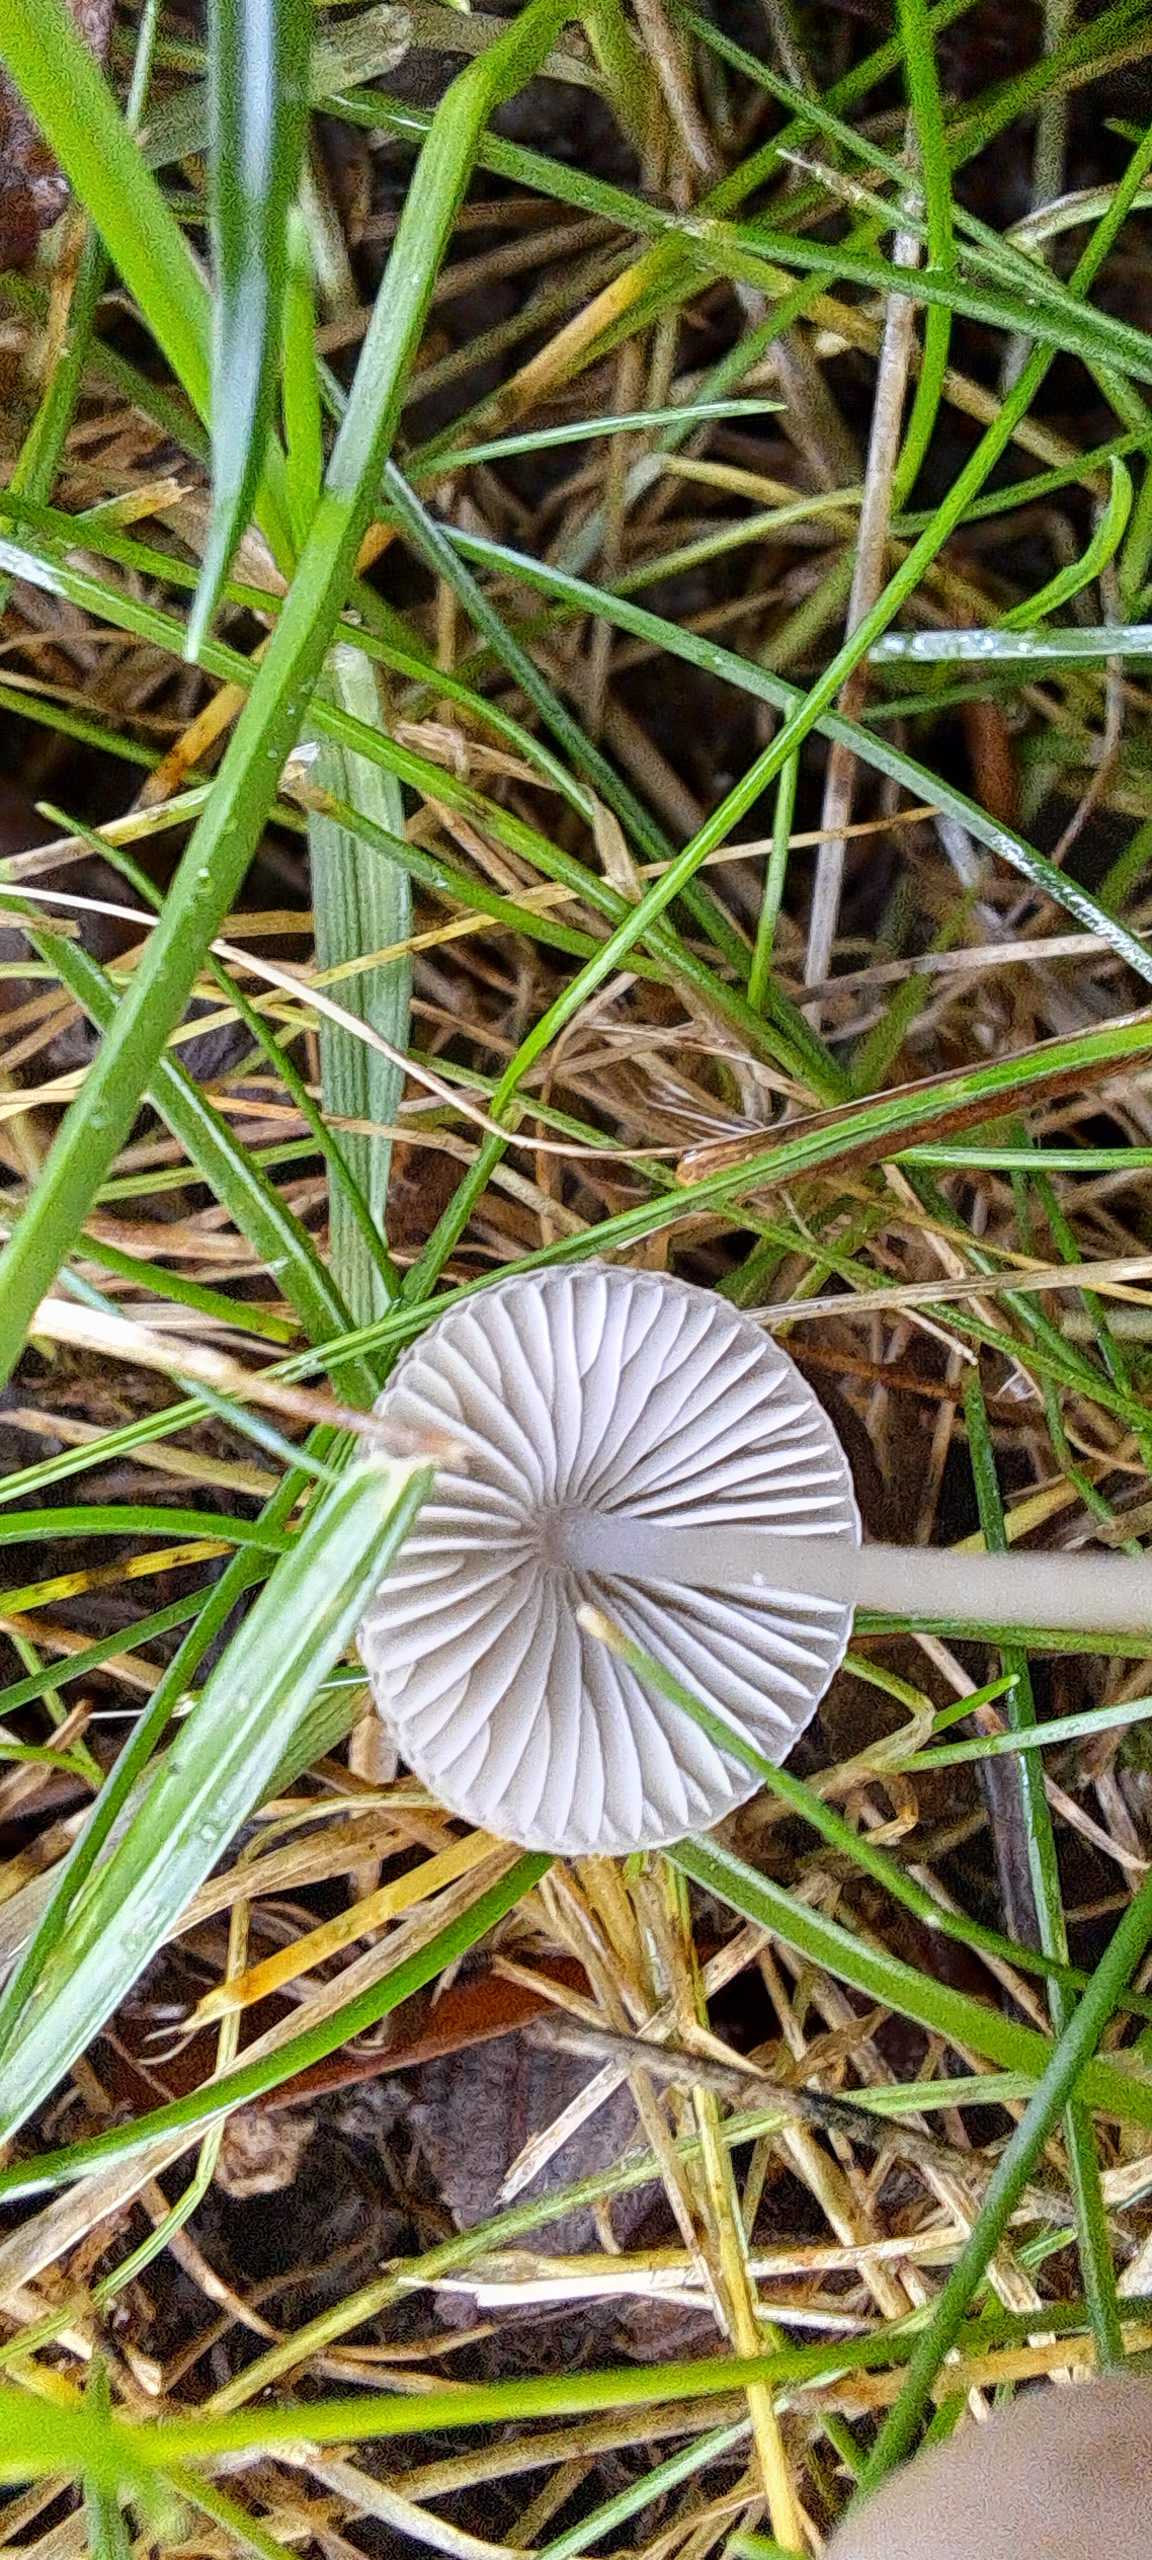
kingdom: Fungi
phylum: Basidiomycota
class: Agaricomycetes
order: Agaricales
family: Mycenaceae
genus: Mycena
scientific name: Mycena vitilis
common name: blankstokket huesvamp
